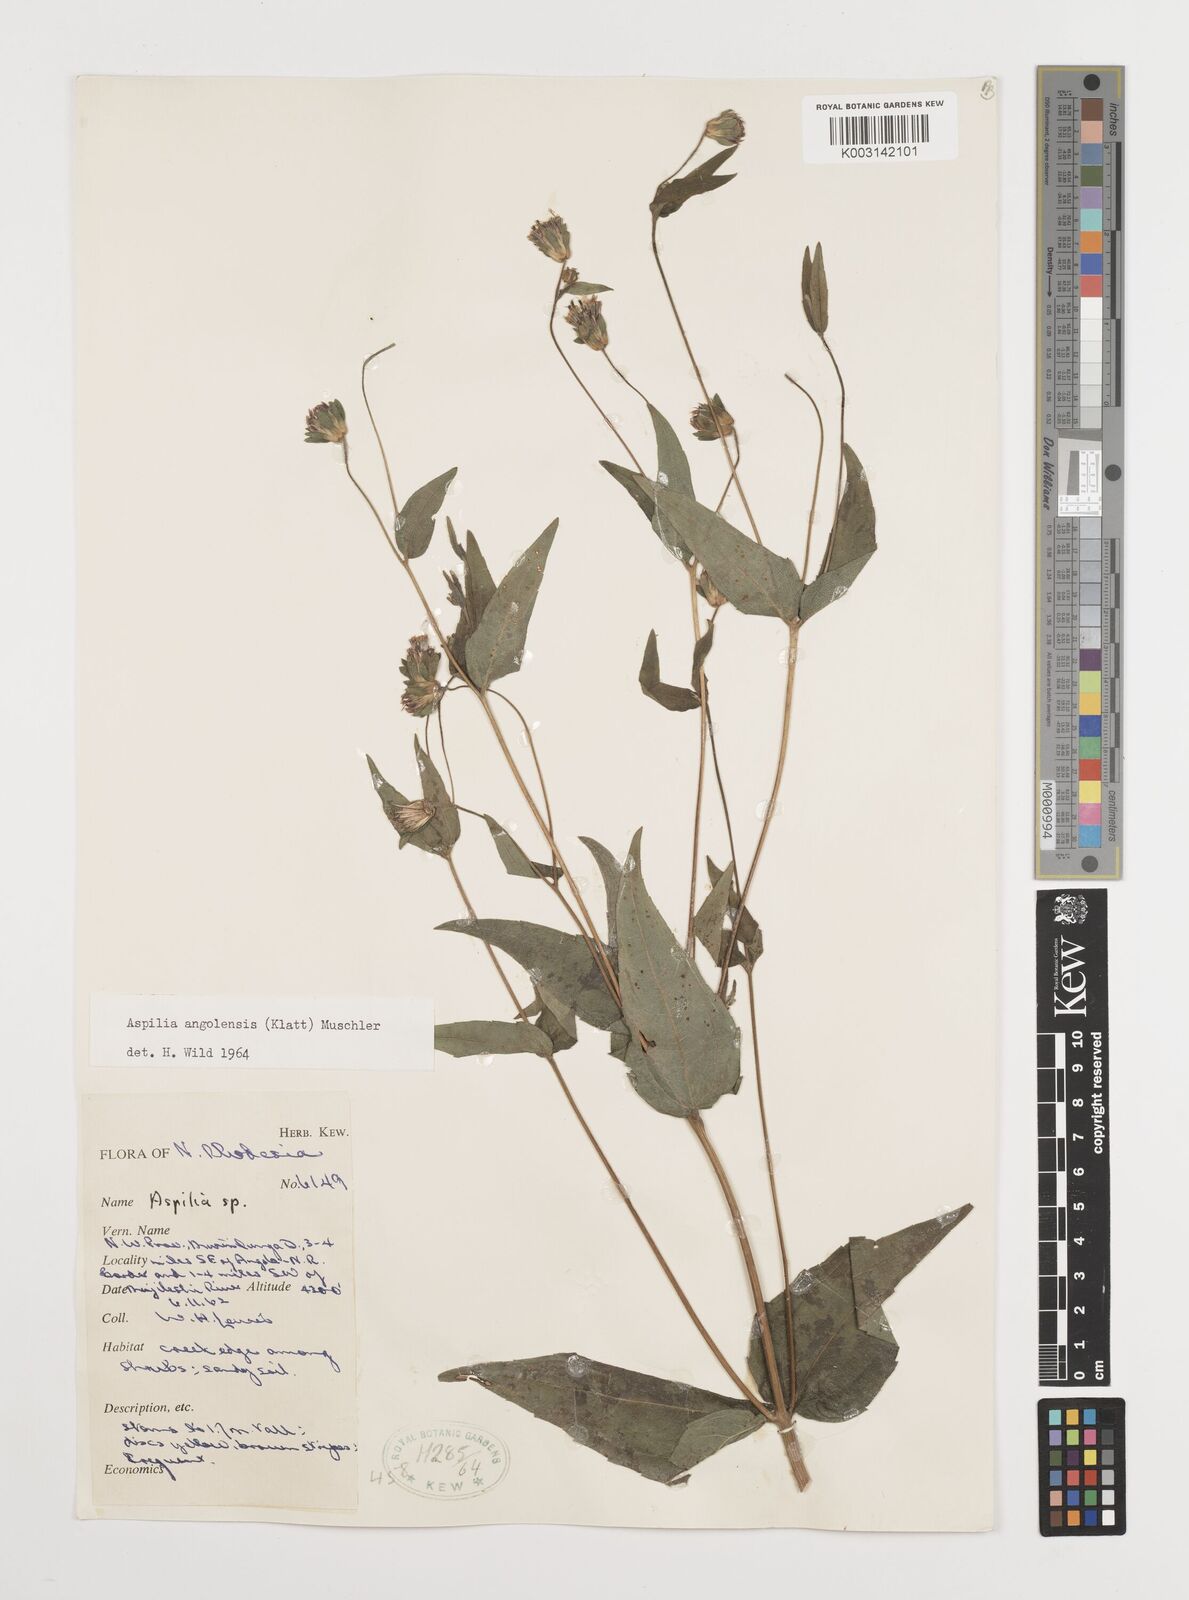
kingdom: Plantae
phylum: Tracheophyta
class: Magnoliopsida
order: Asterales
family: Asteraceae
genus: Aspilia
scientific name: Aspilia angolensis
